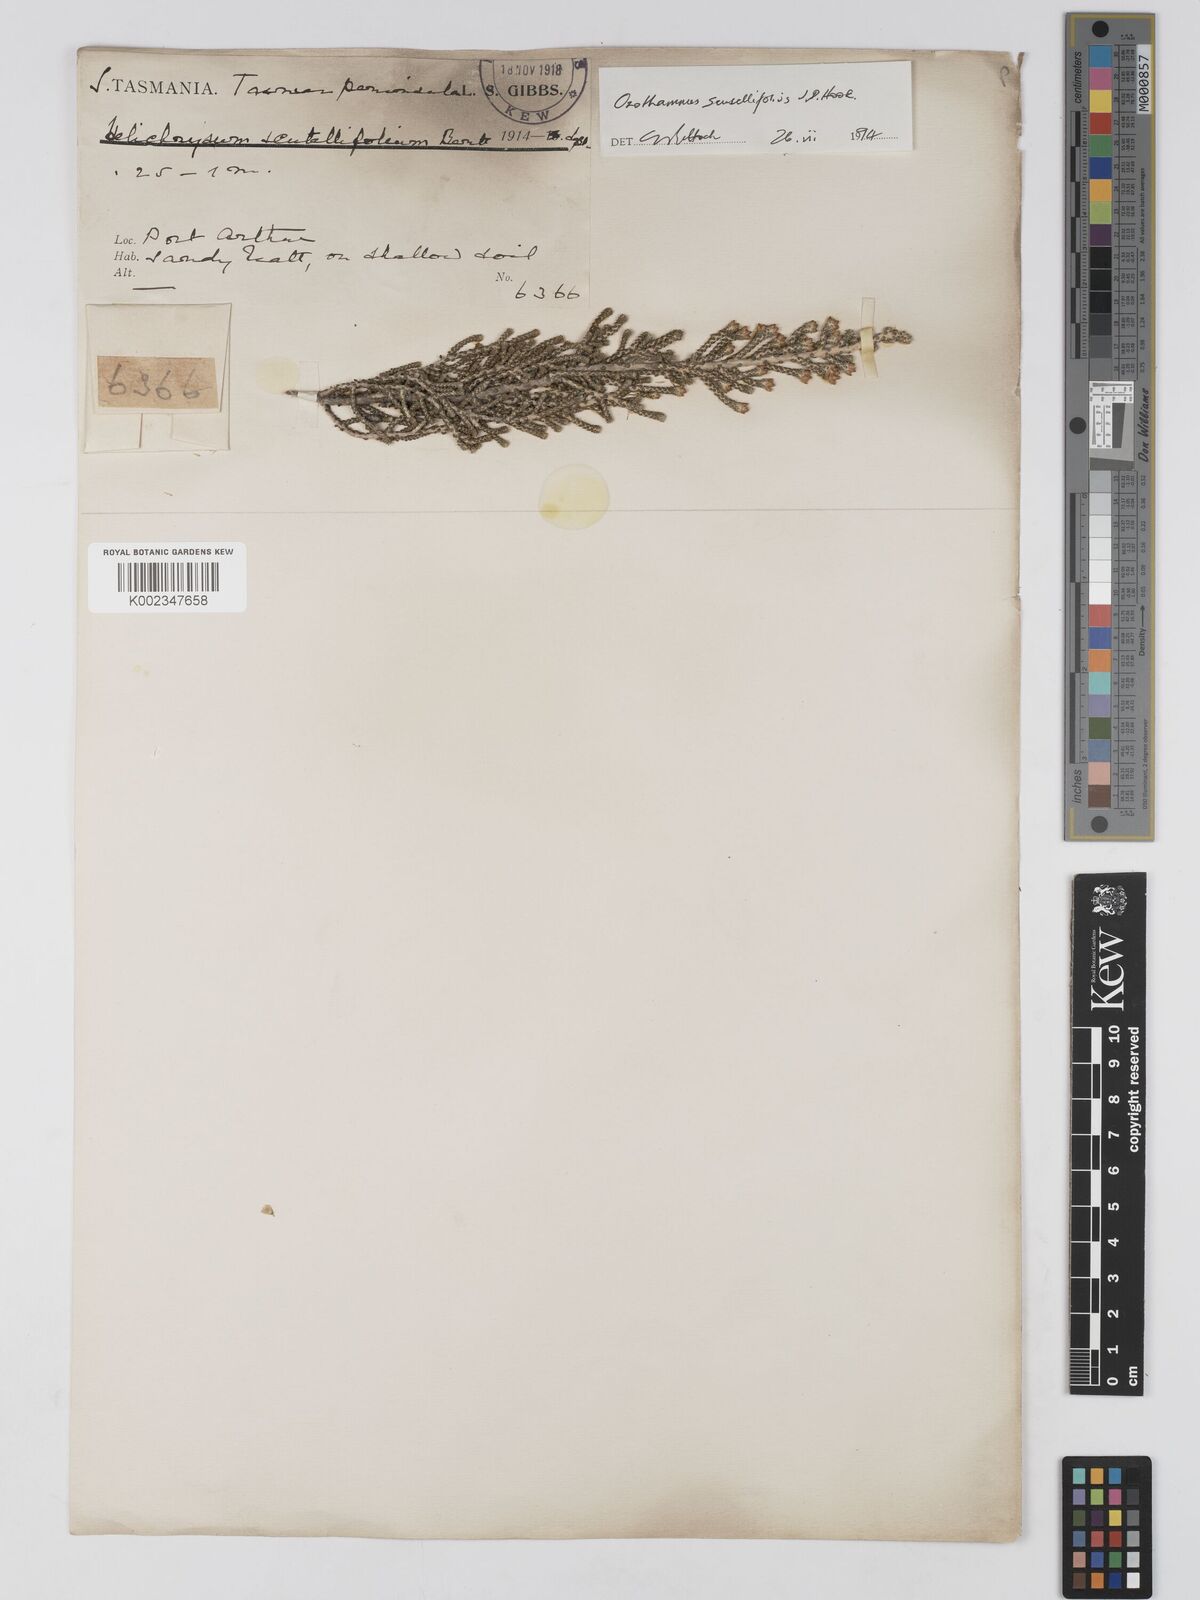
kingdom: Plantae
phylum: Tracheophyta
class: Magnoliopsida
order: Asterales
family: Asteraceae
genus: Ozothamnus
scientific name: Ozothamnus scutellifolius
